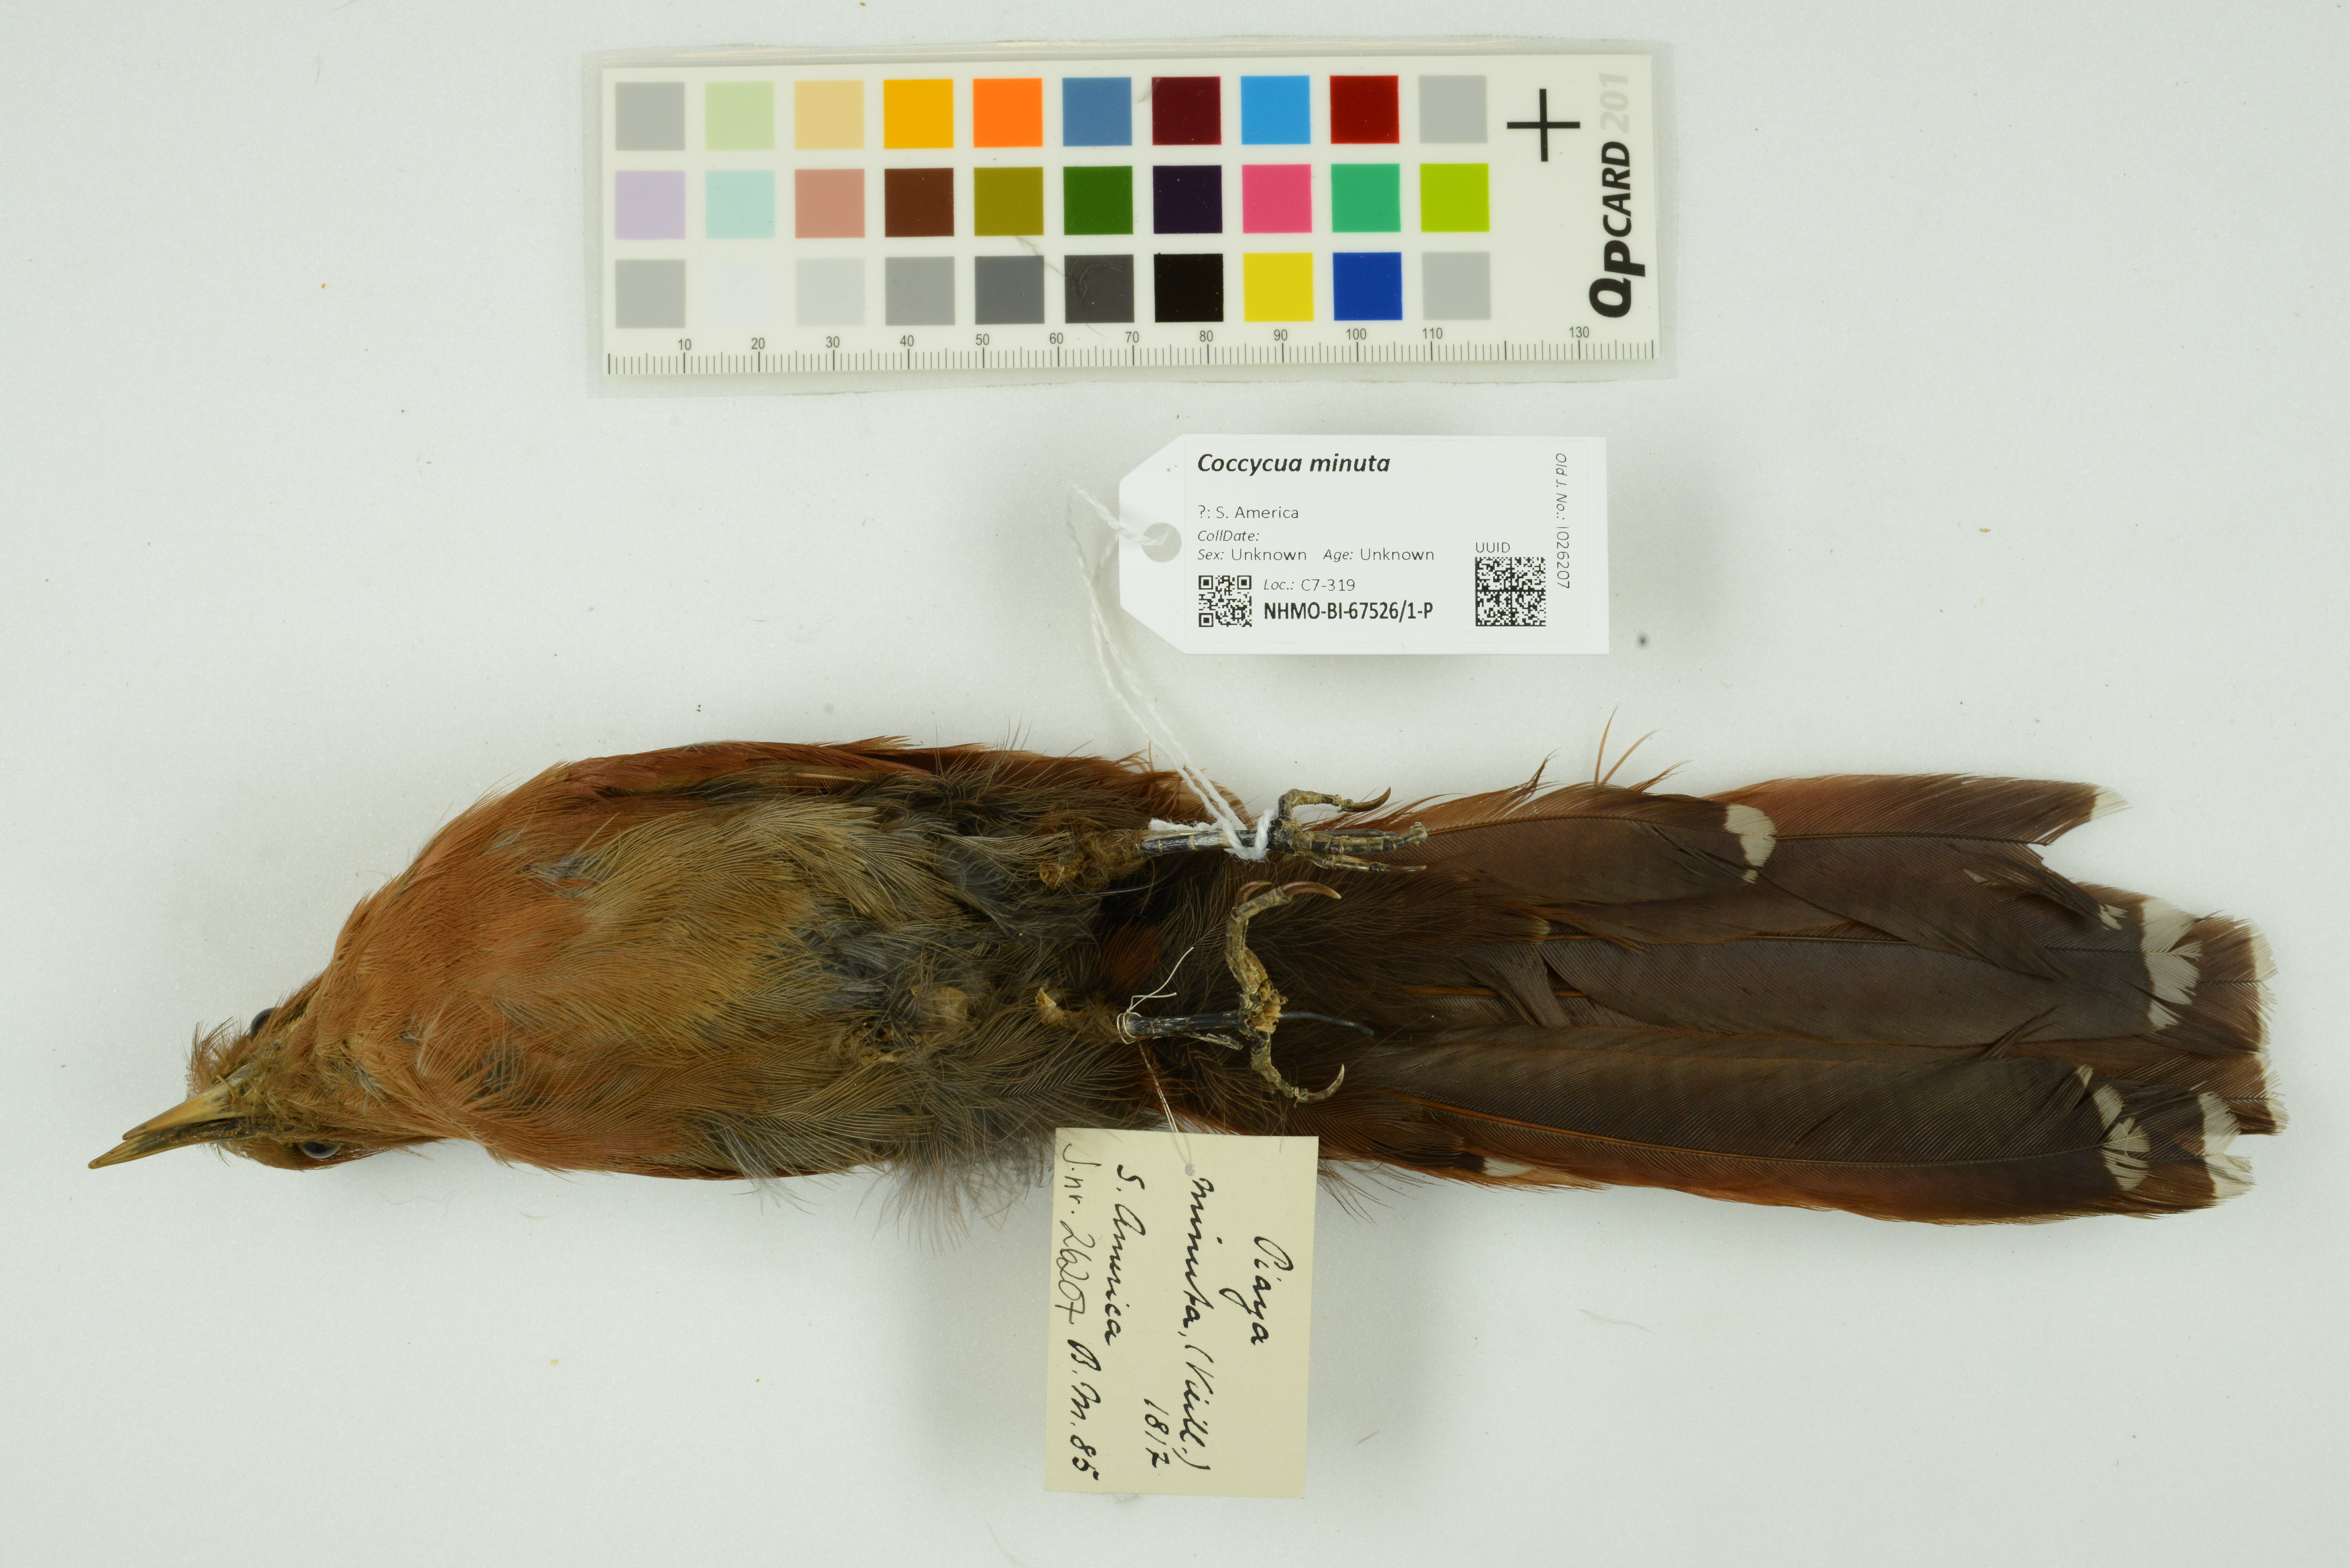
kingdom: Animalia
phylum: Chordata
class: Aves
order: Cuculiformes
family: Cuculidae
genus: Piaya
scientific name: Piaya minuta
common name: Little cuckoo
